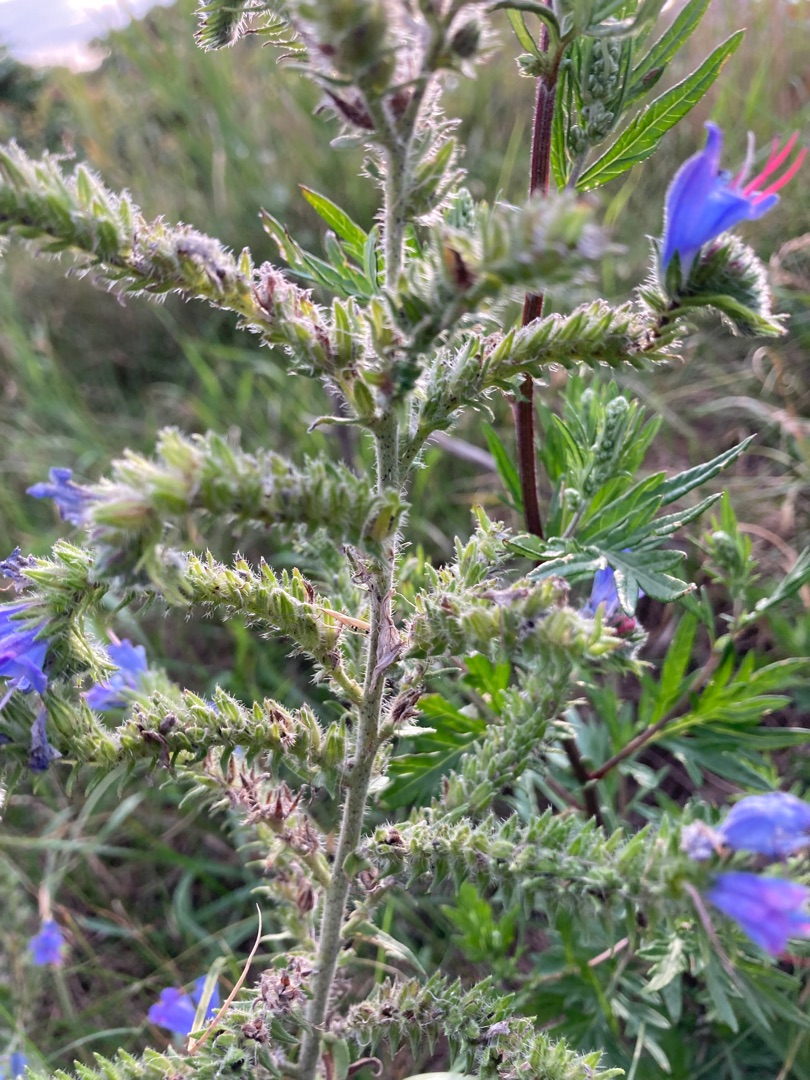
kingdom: Plantae
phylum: Tracheophyta
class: Magnoliopsida
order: Boraginales
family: Boraginaceae
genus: Echium
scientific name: Echium vulgare
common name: Slangehoved
